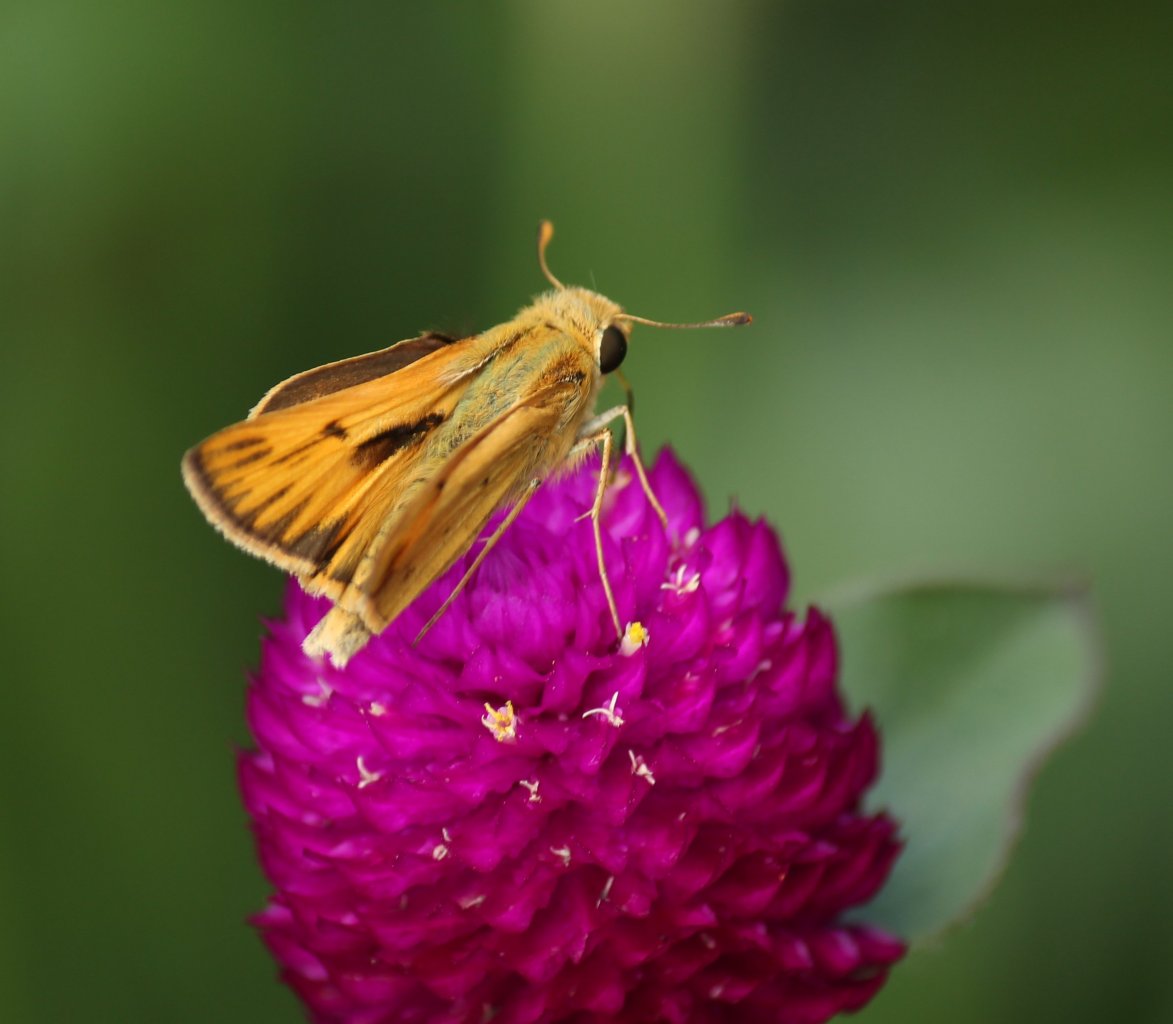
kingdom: Animalia
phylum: Arthropoda
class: Insecta
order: Lepidoptera
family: Hesperiidae
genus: Hylephila
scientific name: Hylephila phyleus
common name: Fiery Skipper
